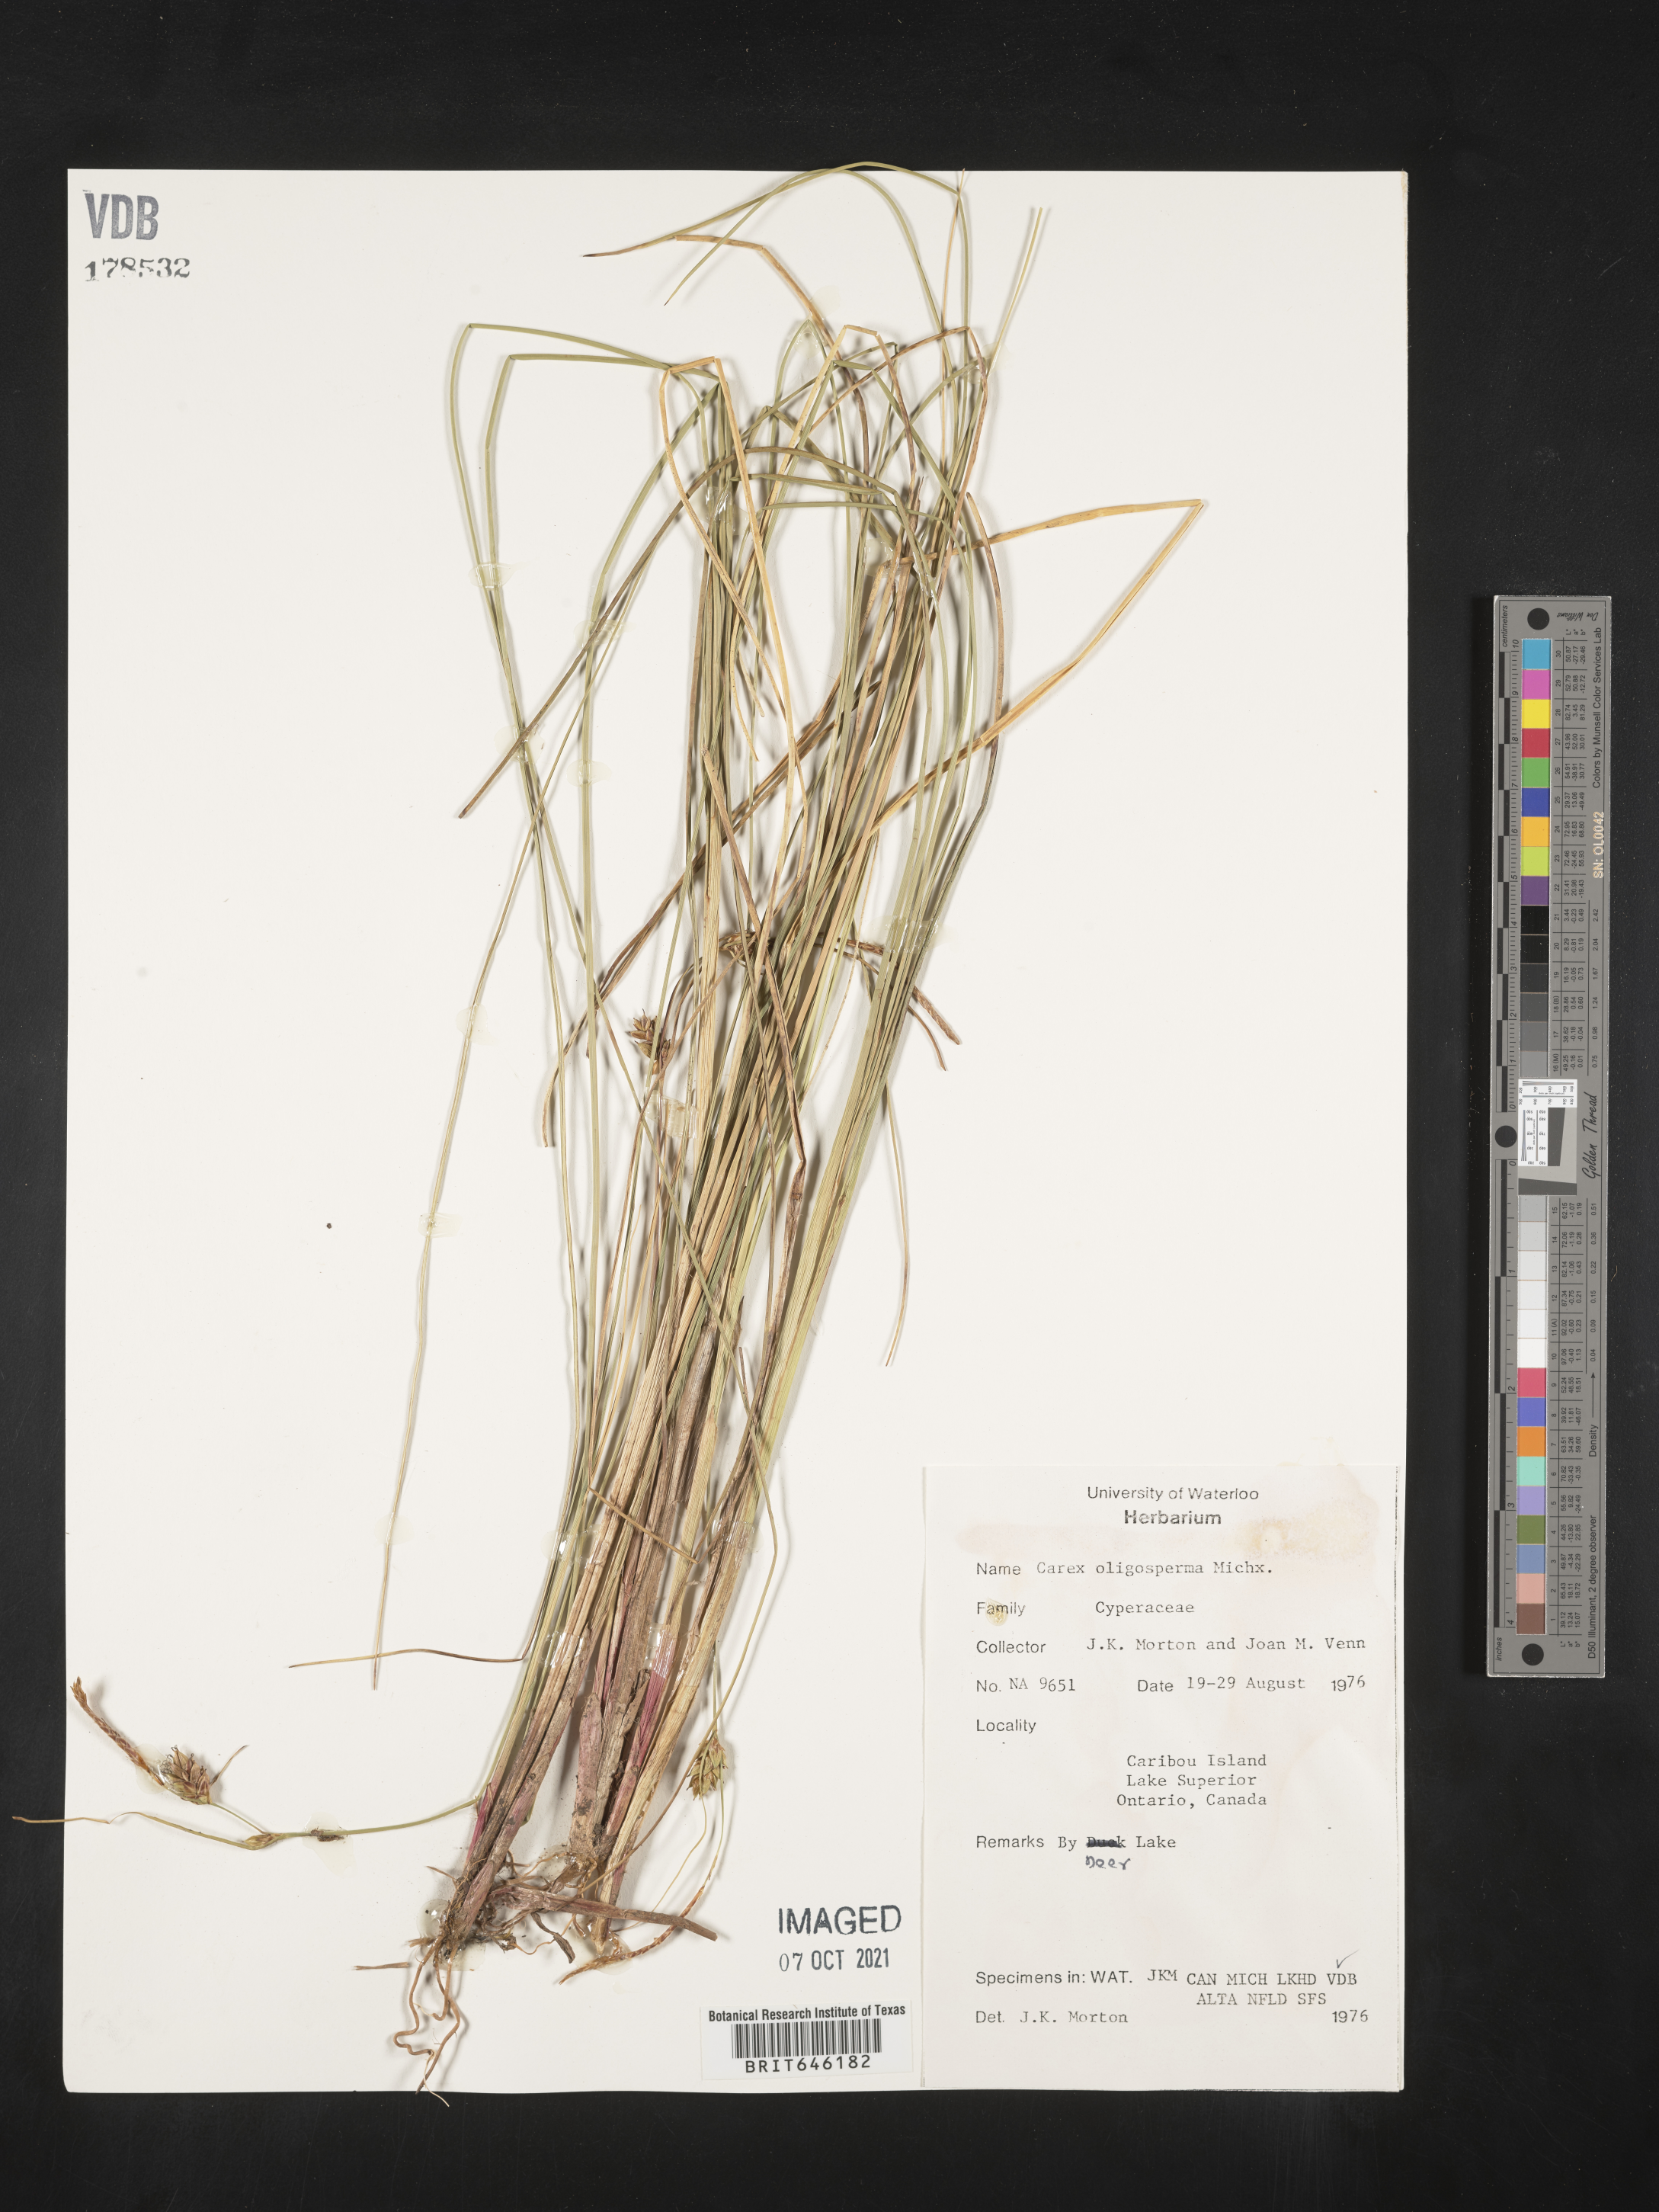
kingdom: Plantae
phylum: Tracheophyta
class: Liliopsida
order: Poales
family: Cyperaceae
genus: Carex
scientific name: Carex oligosperma
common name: Few-seed sedge
